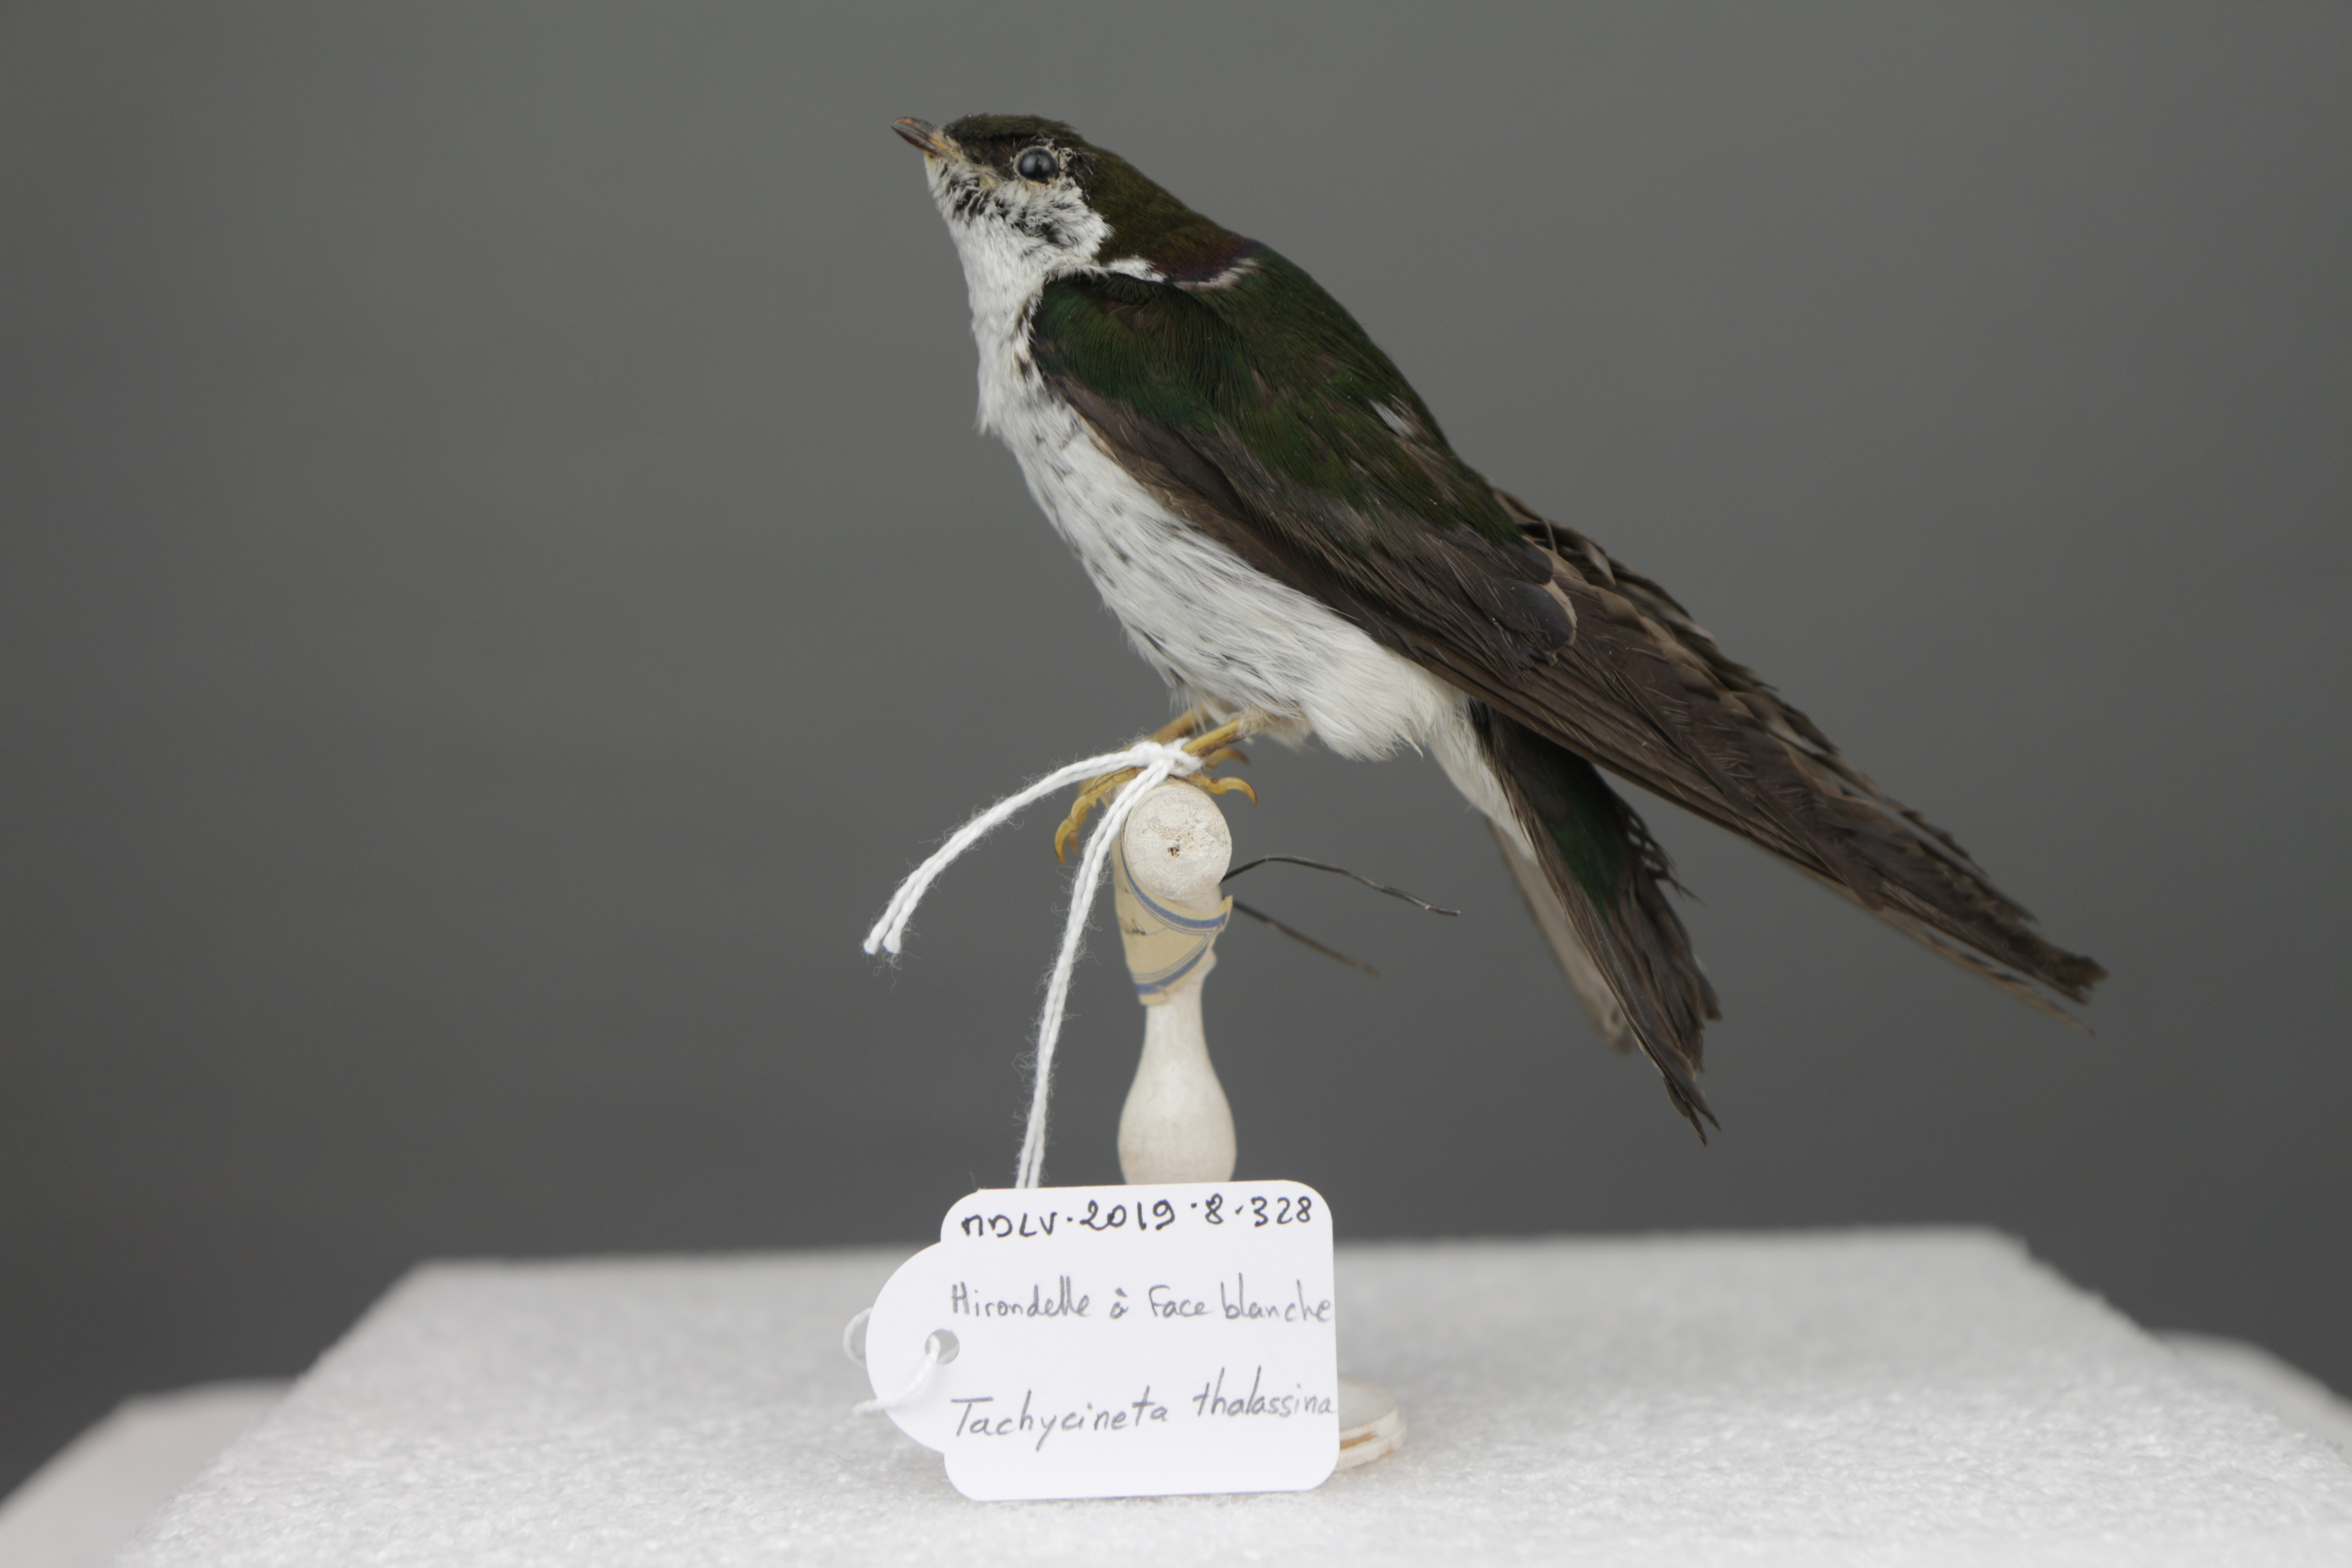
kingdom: Animalia
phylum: Chordata
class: Aves
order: Passeriformes
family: Hirundinidae
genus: Tachycineta
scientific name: Tachycineta thalassina
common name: Violet-green swallow
